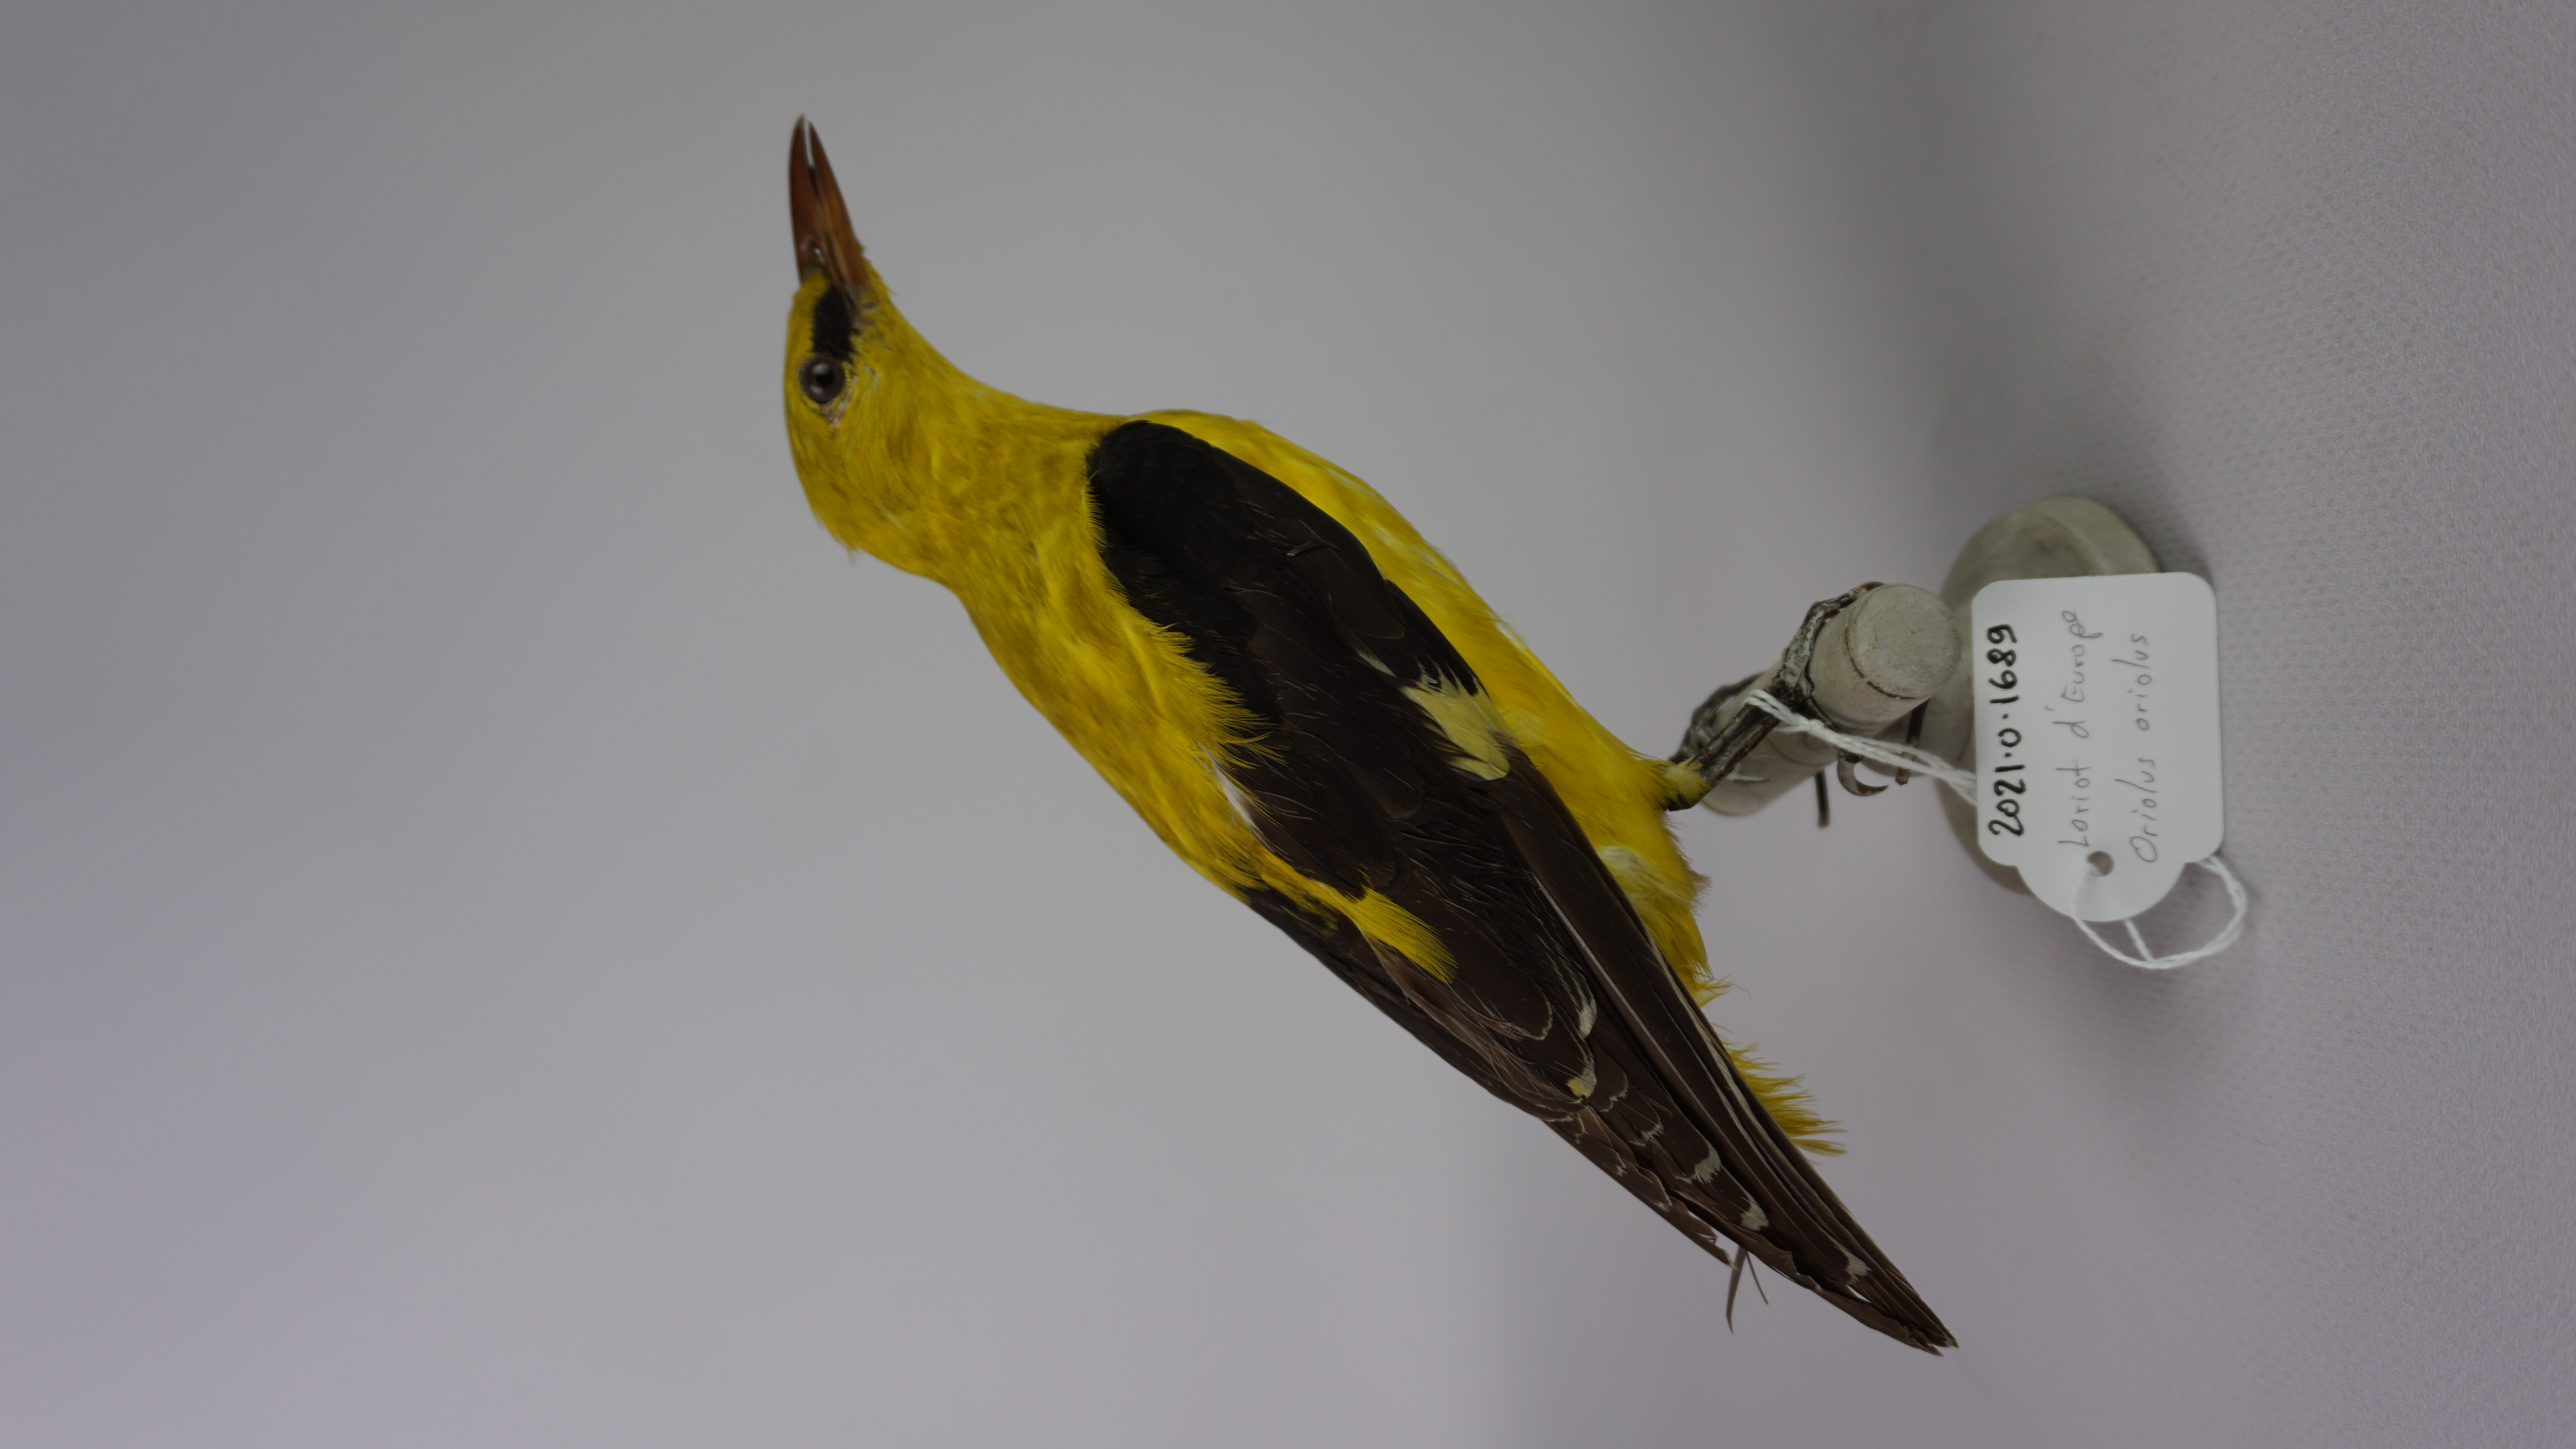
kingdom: Animalia
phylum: Chordata
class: Aves
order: Passeriformes
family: Oriolidae
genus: Oriolus
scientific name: Oriolus oriolus
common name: Eurasian golden oriole
